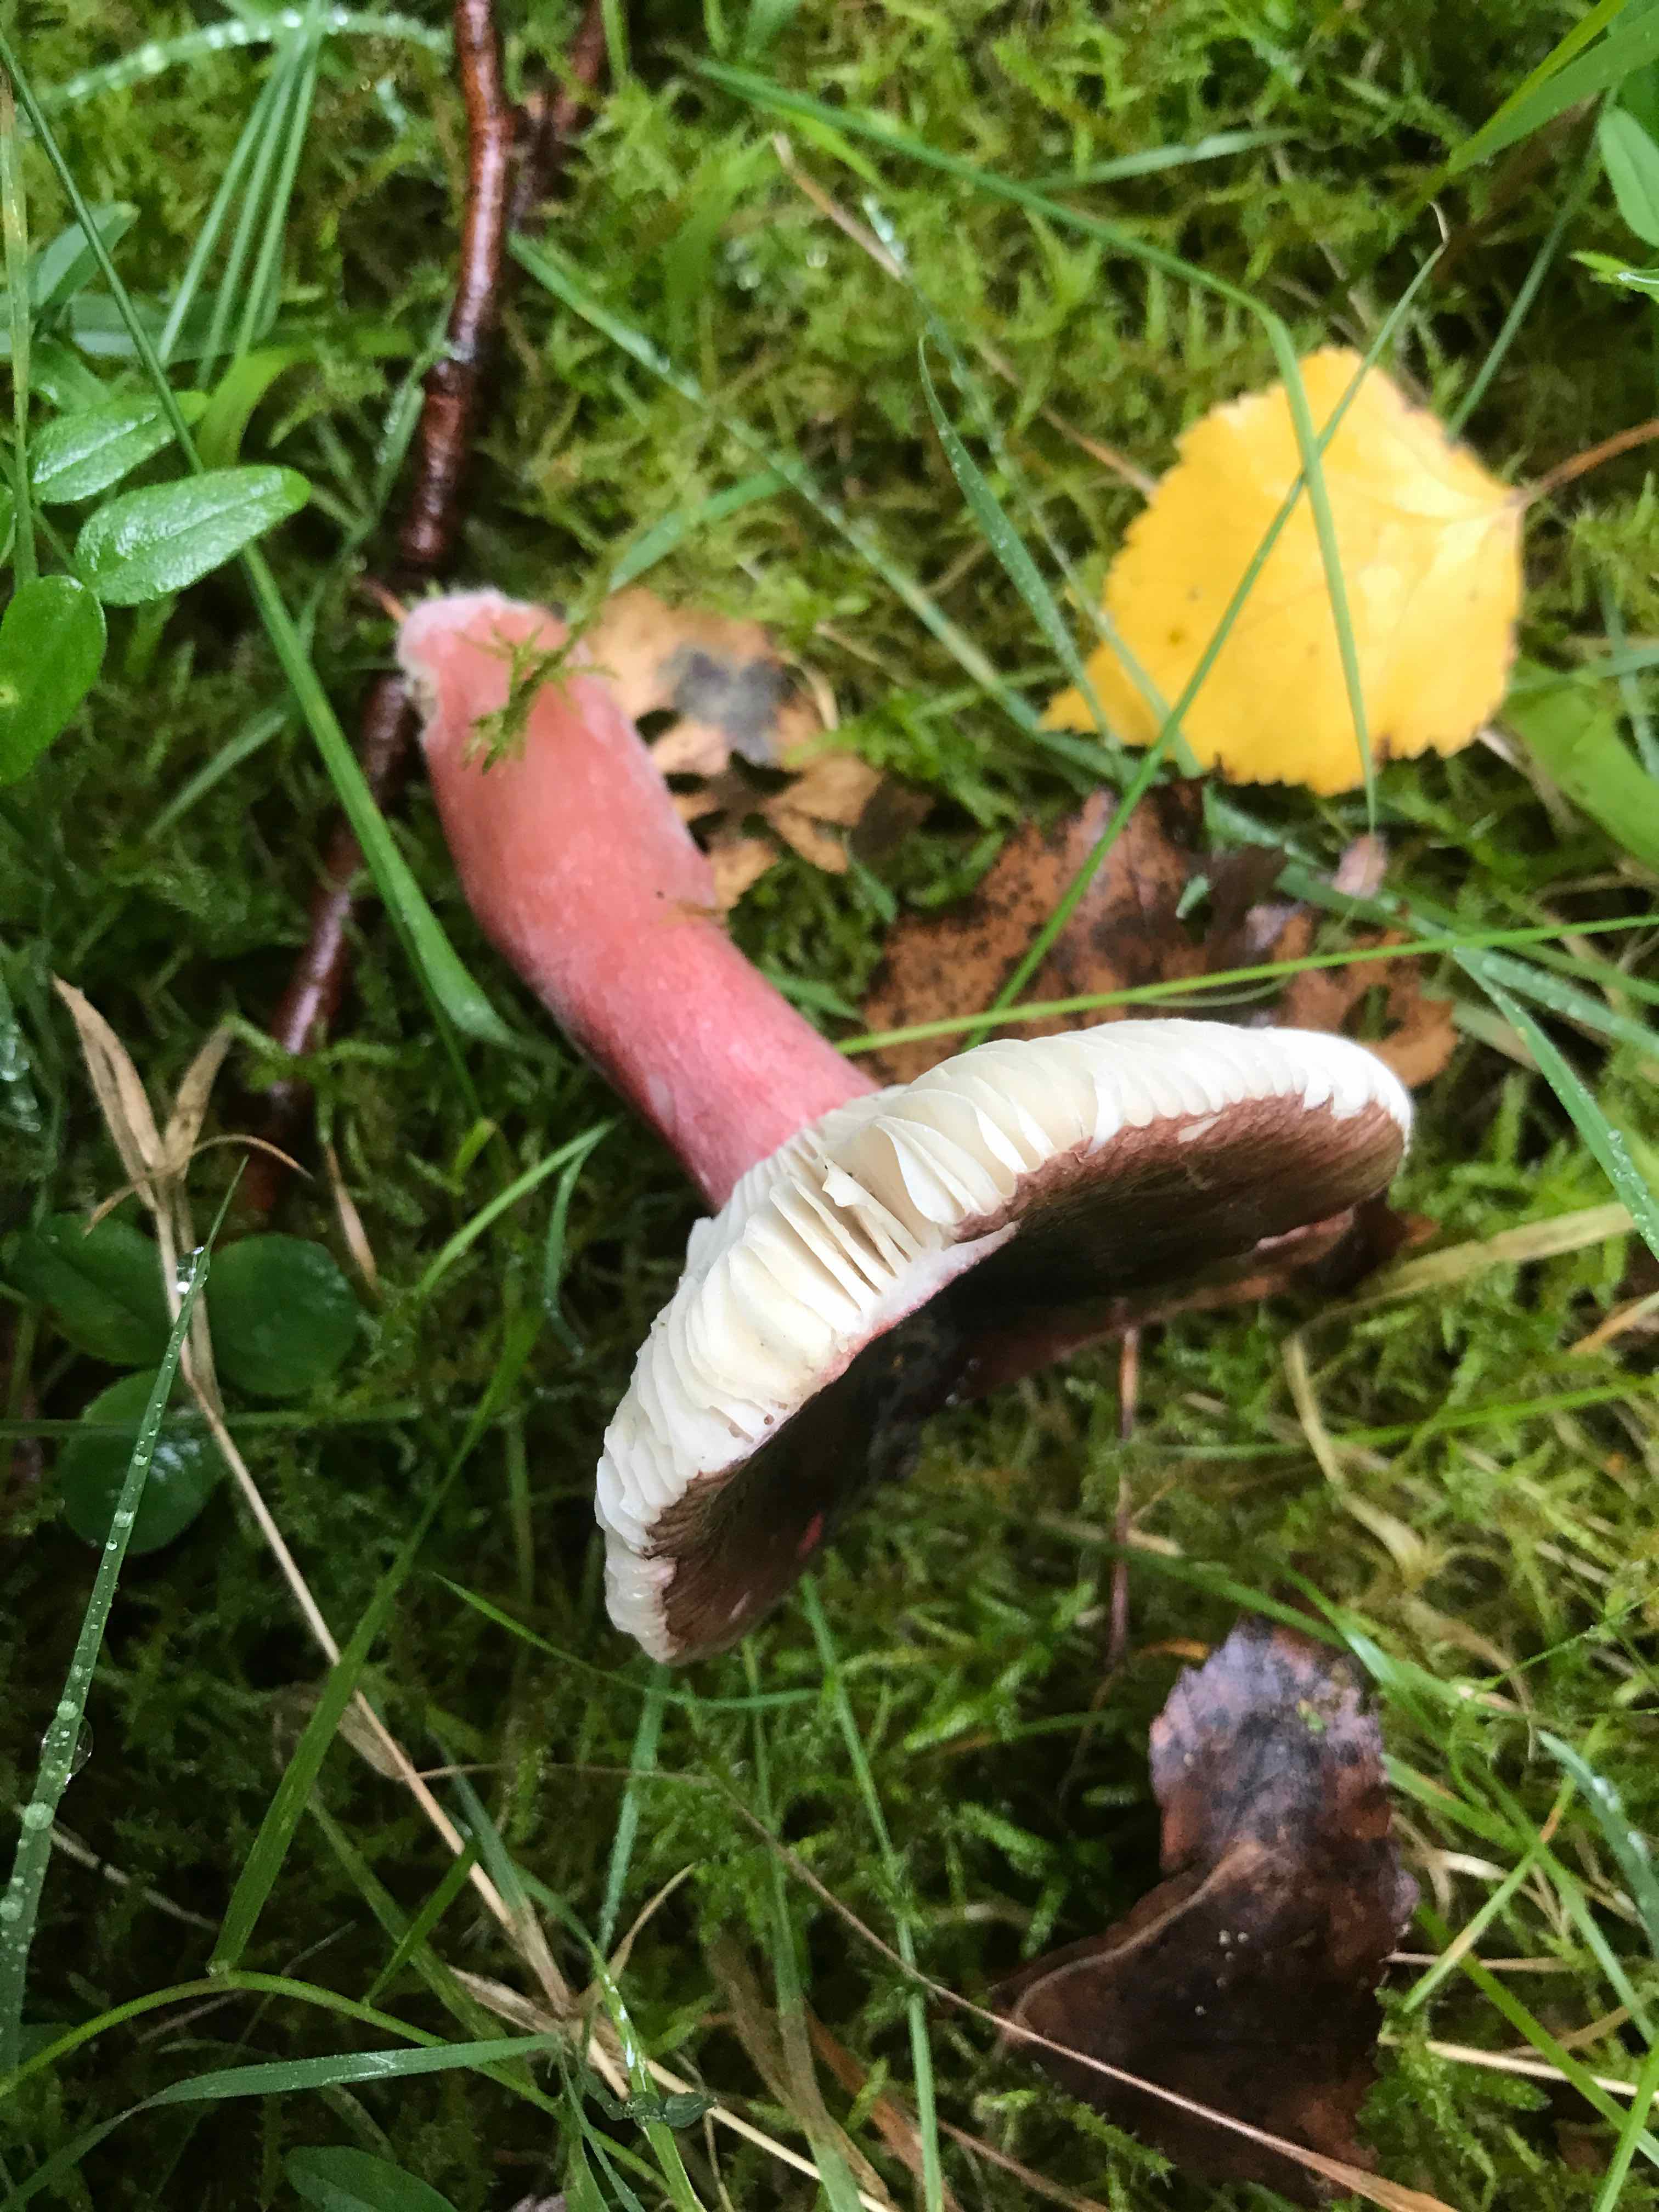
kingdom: Fungi
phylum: Basidiomycota
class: Agaricomycetes
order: Russulales
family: Russulaceae
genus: Russula
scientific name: Russula queletii
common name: Quélets skørhat
